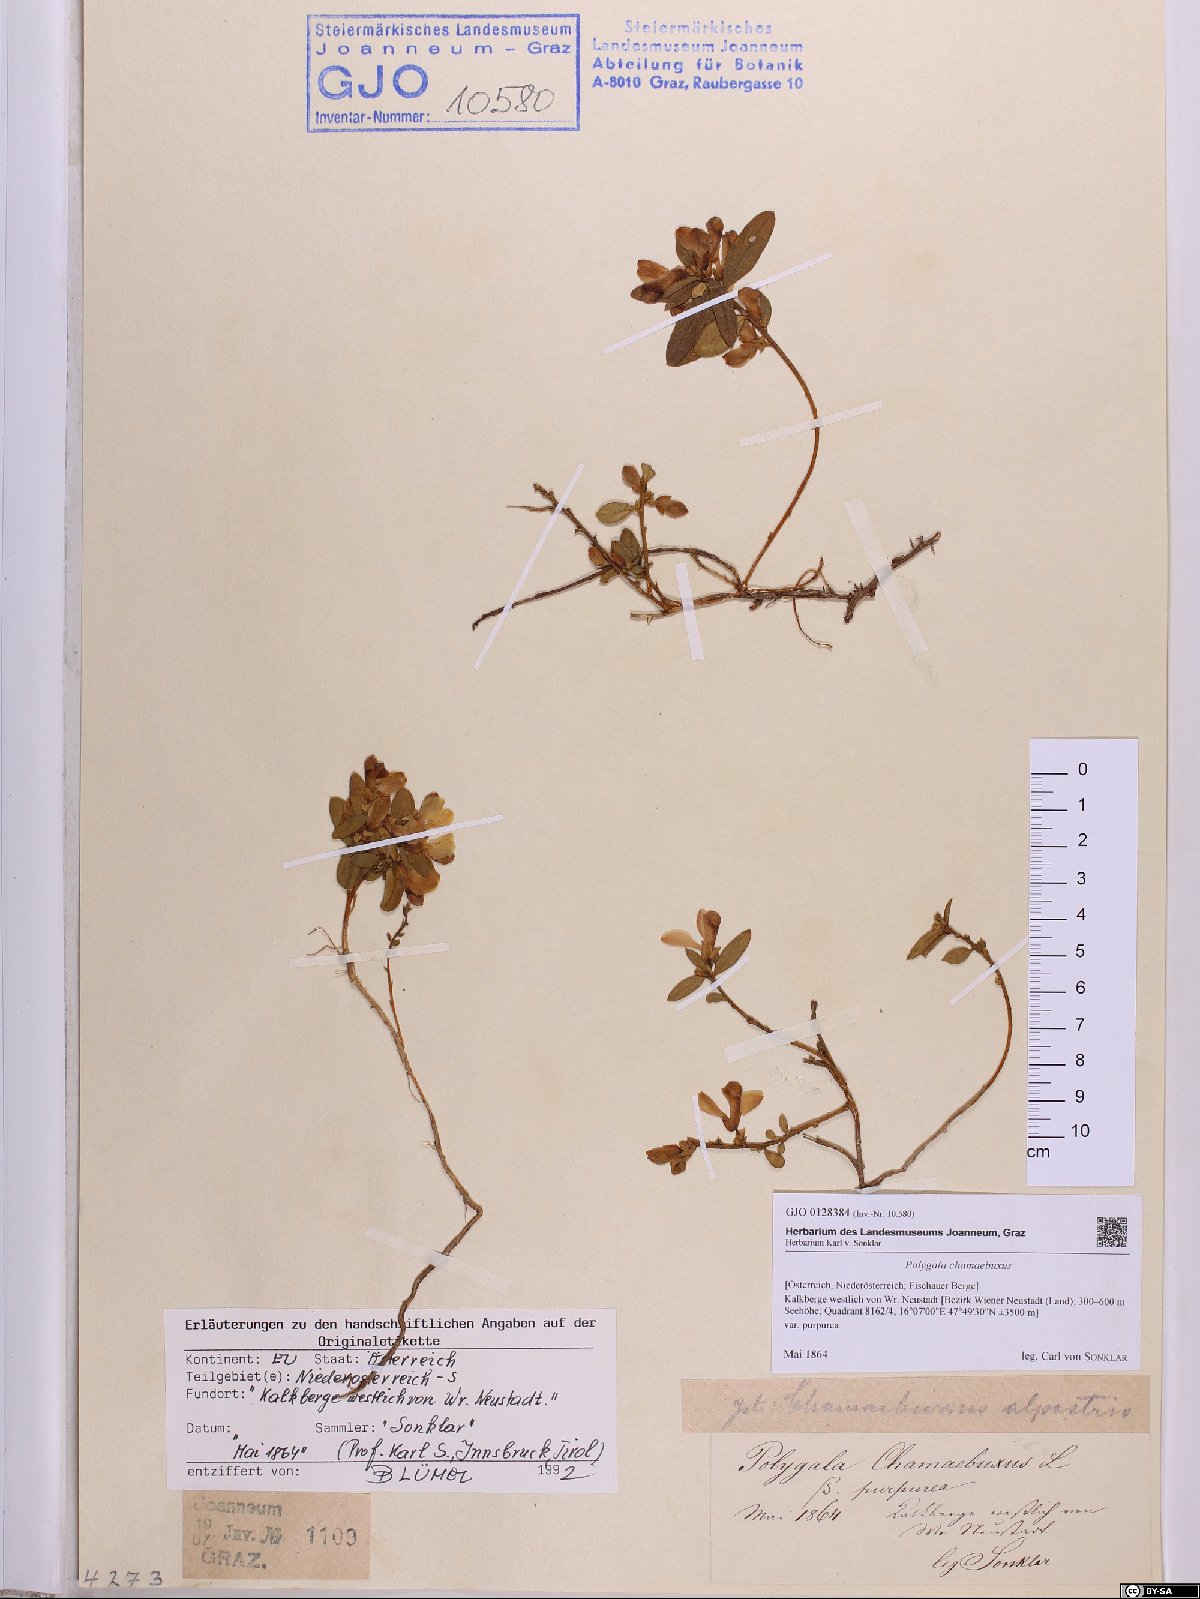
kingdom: Plantae
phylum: Tracheophyta
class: Magnoliopsida
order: Fabales
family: Polygalaceae
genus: Polygaloides
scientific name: Polygaloides chamaebuxus
